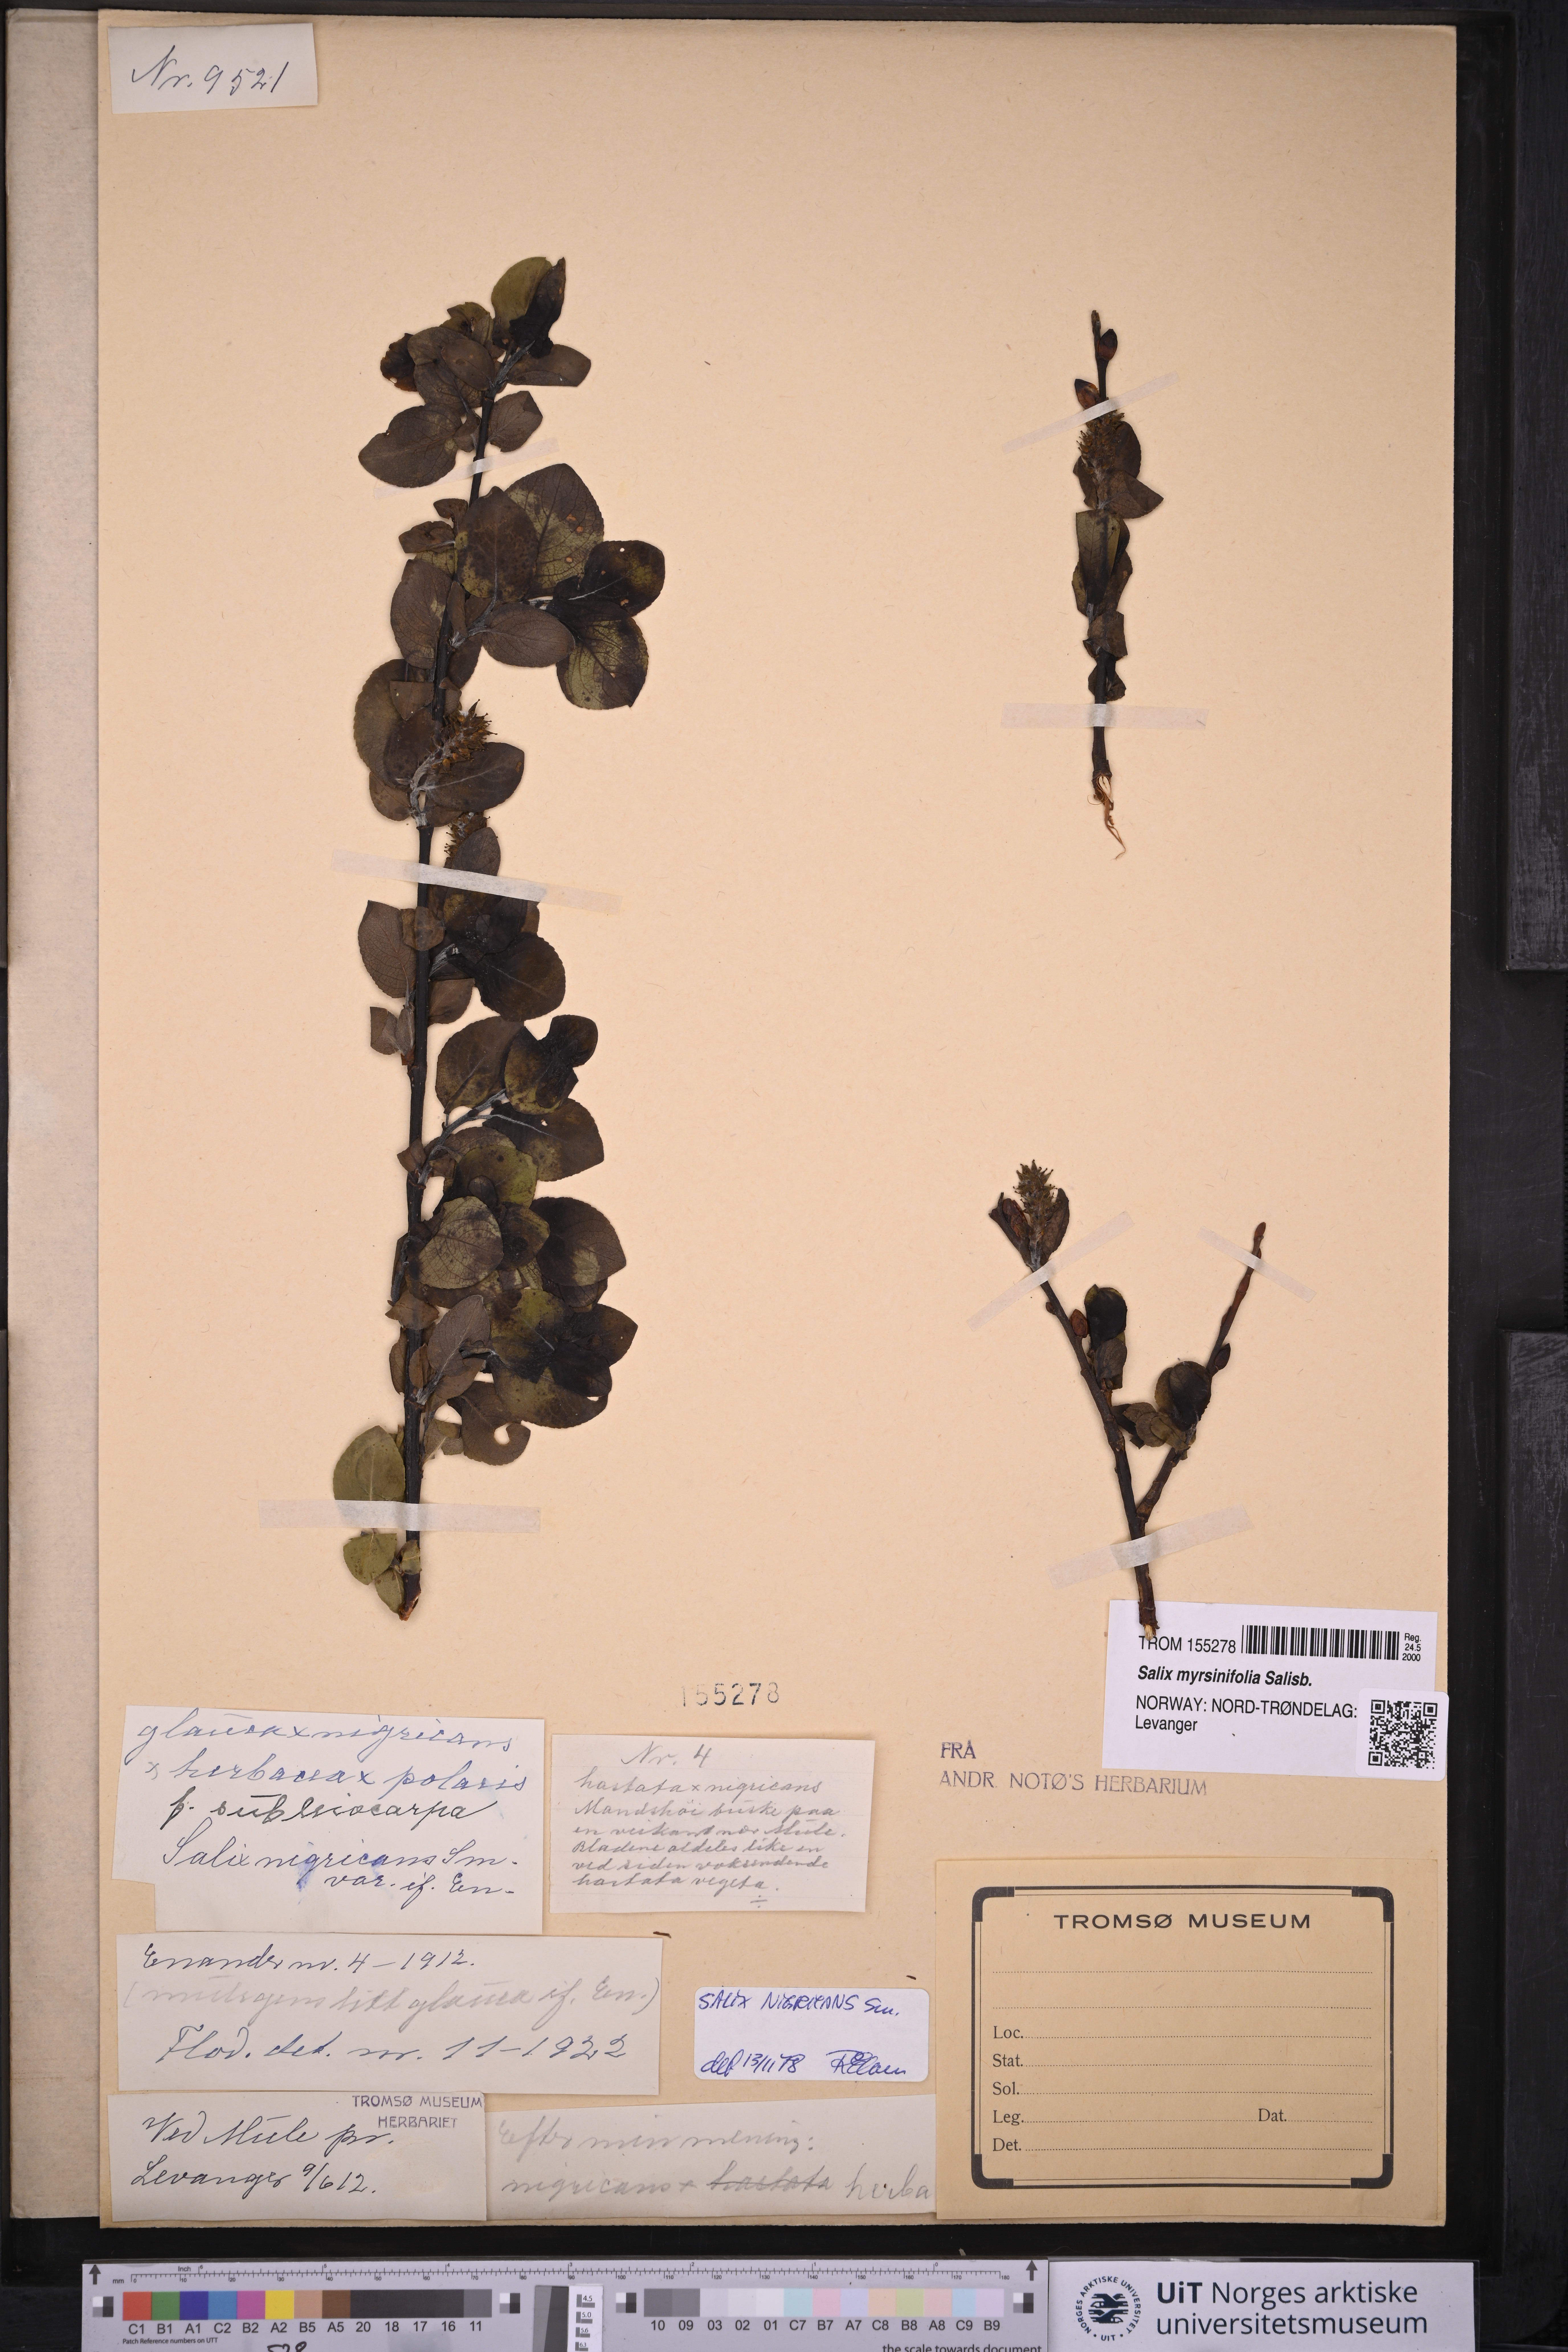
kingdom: Plantae
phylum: Tracheophyta
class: Magnoliopsida
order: Malpighiales
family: Salicaceae
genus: Salix
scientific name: Salix myrsinifolia
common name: Dark-leaved willow
